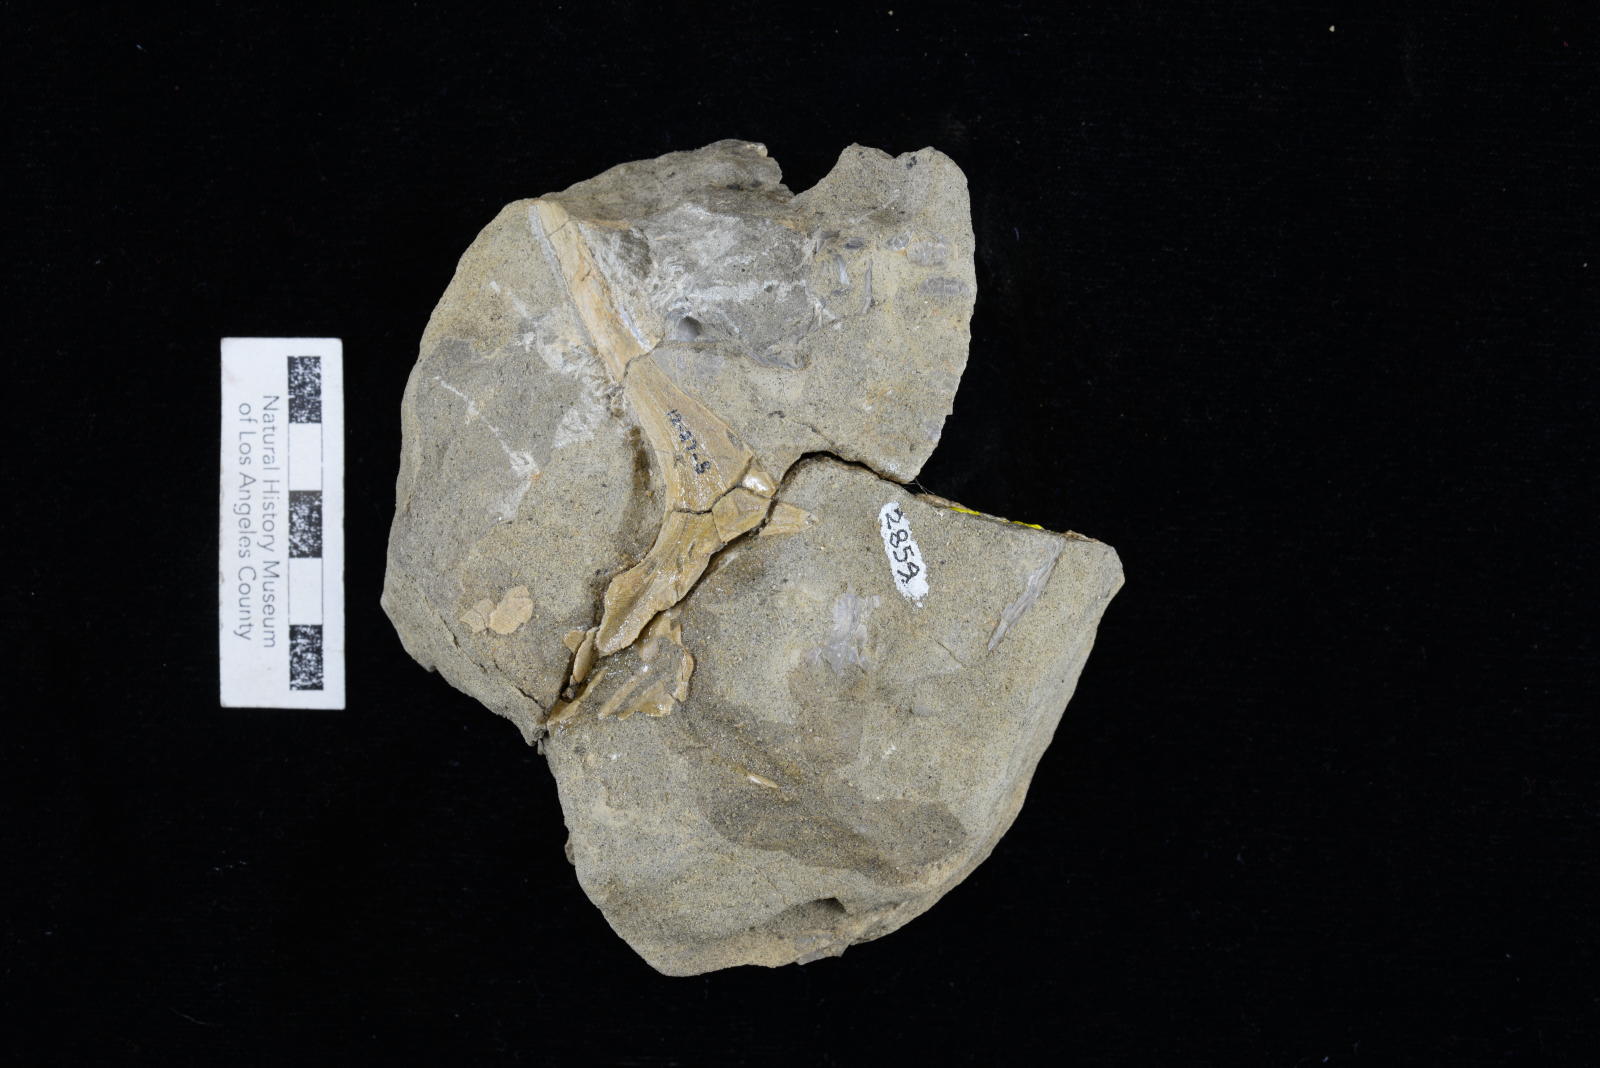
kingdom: Animalia
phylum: Mollusca
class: Gastropoda
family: Nerineidae
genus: Nerinea
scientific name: Nerinea stewarti
